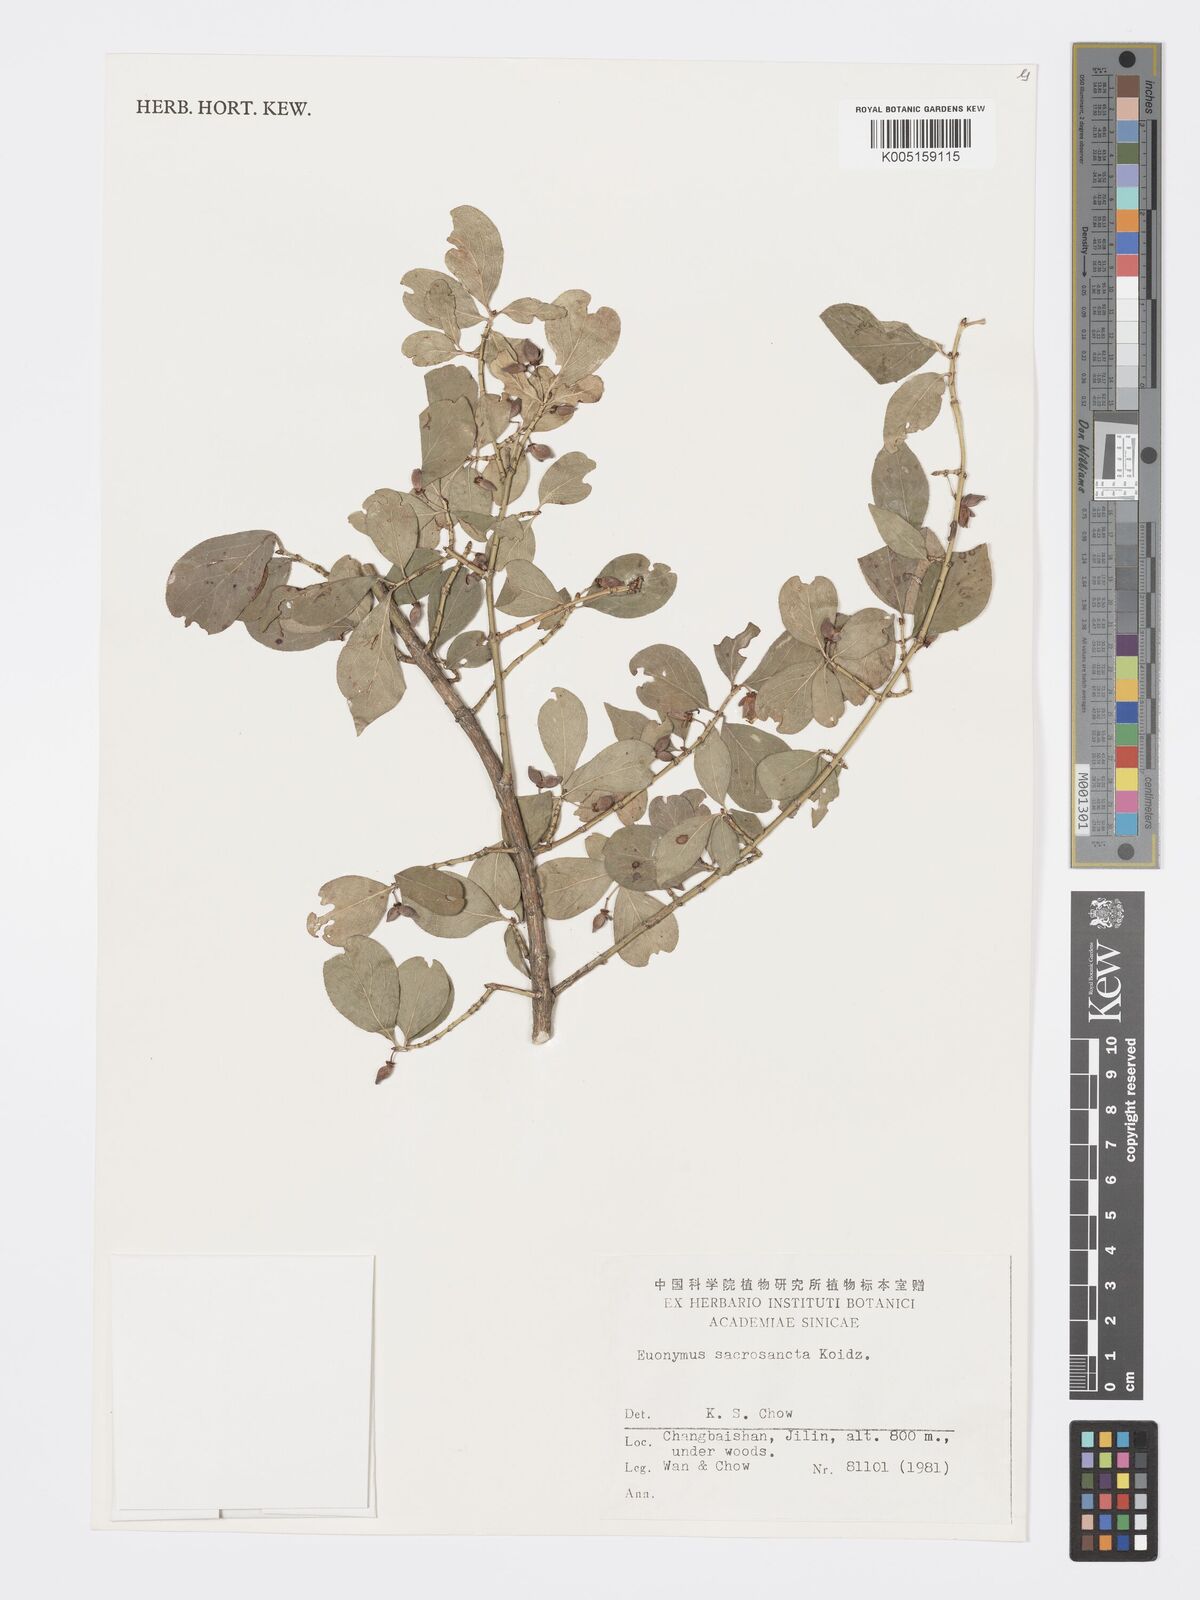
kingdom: Plantae
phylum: Tracheophyta
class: Magnoliopsida
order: Celastrales
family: Celastraceae
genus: Euonymus
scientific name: Euonymus alatus
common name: Winged euonymus
